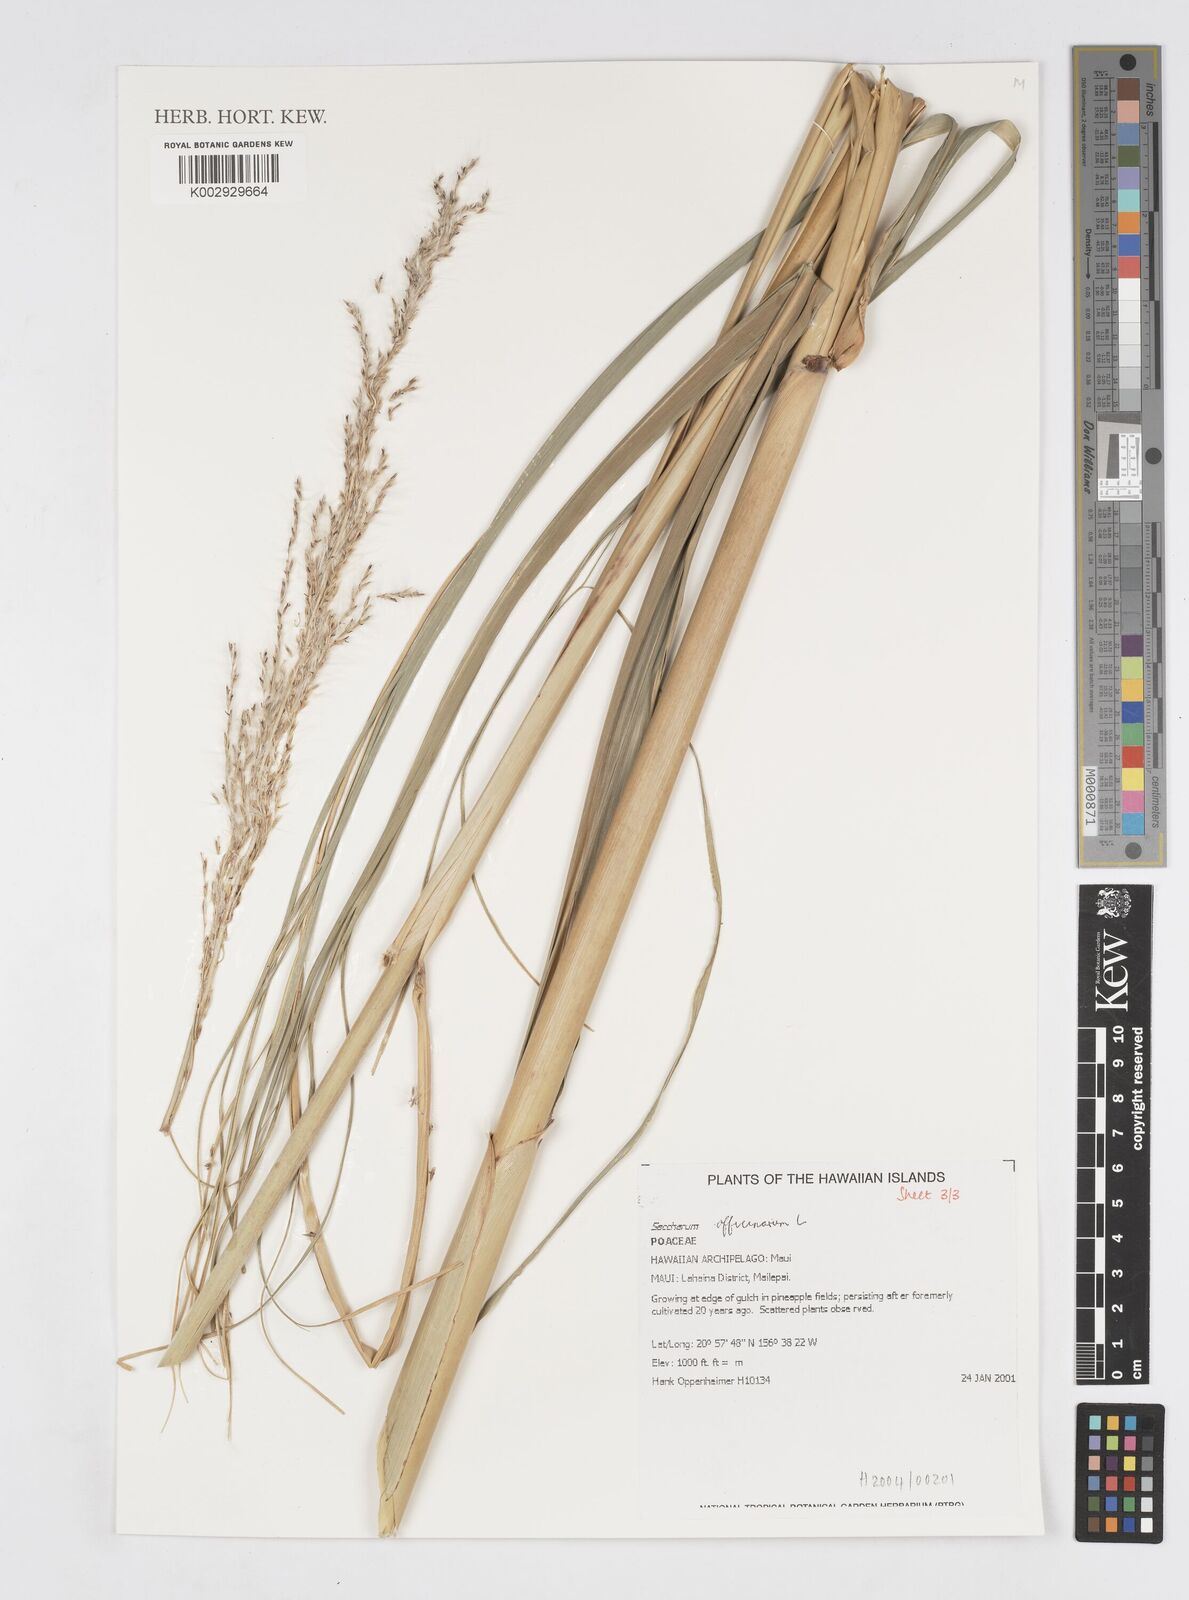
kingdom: Plantae
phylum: Tracheophyta
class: Liliopsida
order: Poales
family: Poaceae
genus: Saccharum
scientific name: Saccharum officinarum
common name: Sugarcane
